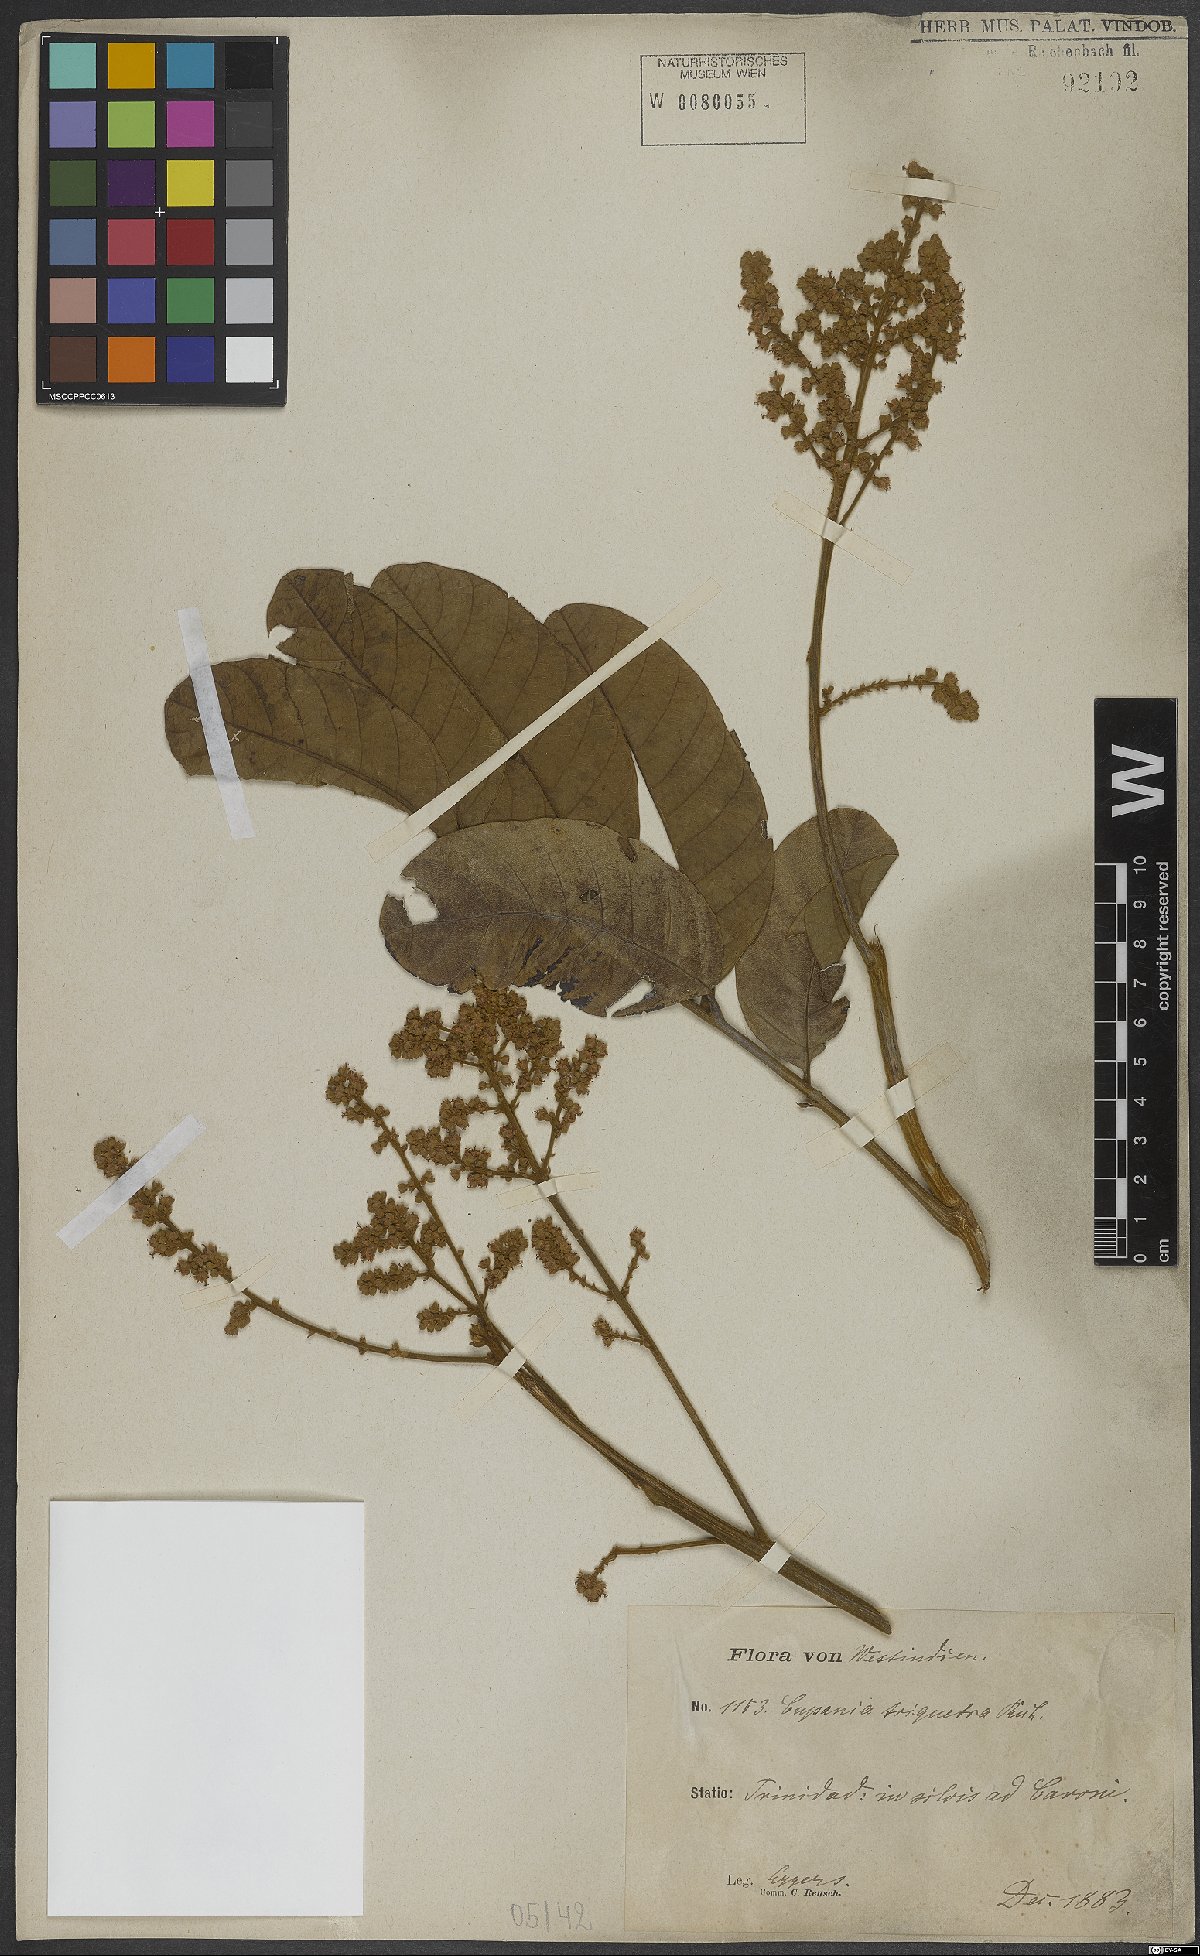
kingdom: Plantae
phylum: Tracheophyta
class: Magnoliopsida
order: Sapindales
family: Sapindaceae
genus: Cupania
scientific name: Cupania triquetra
